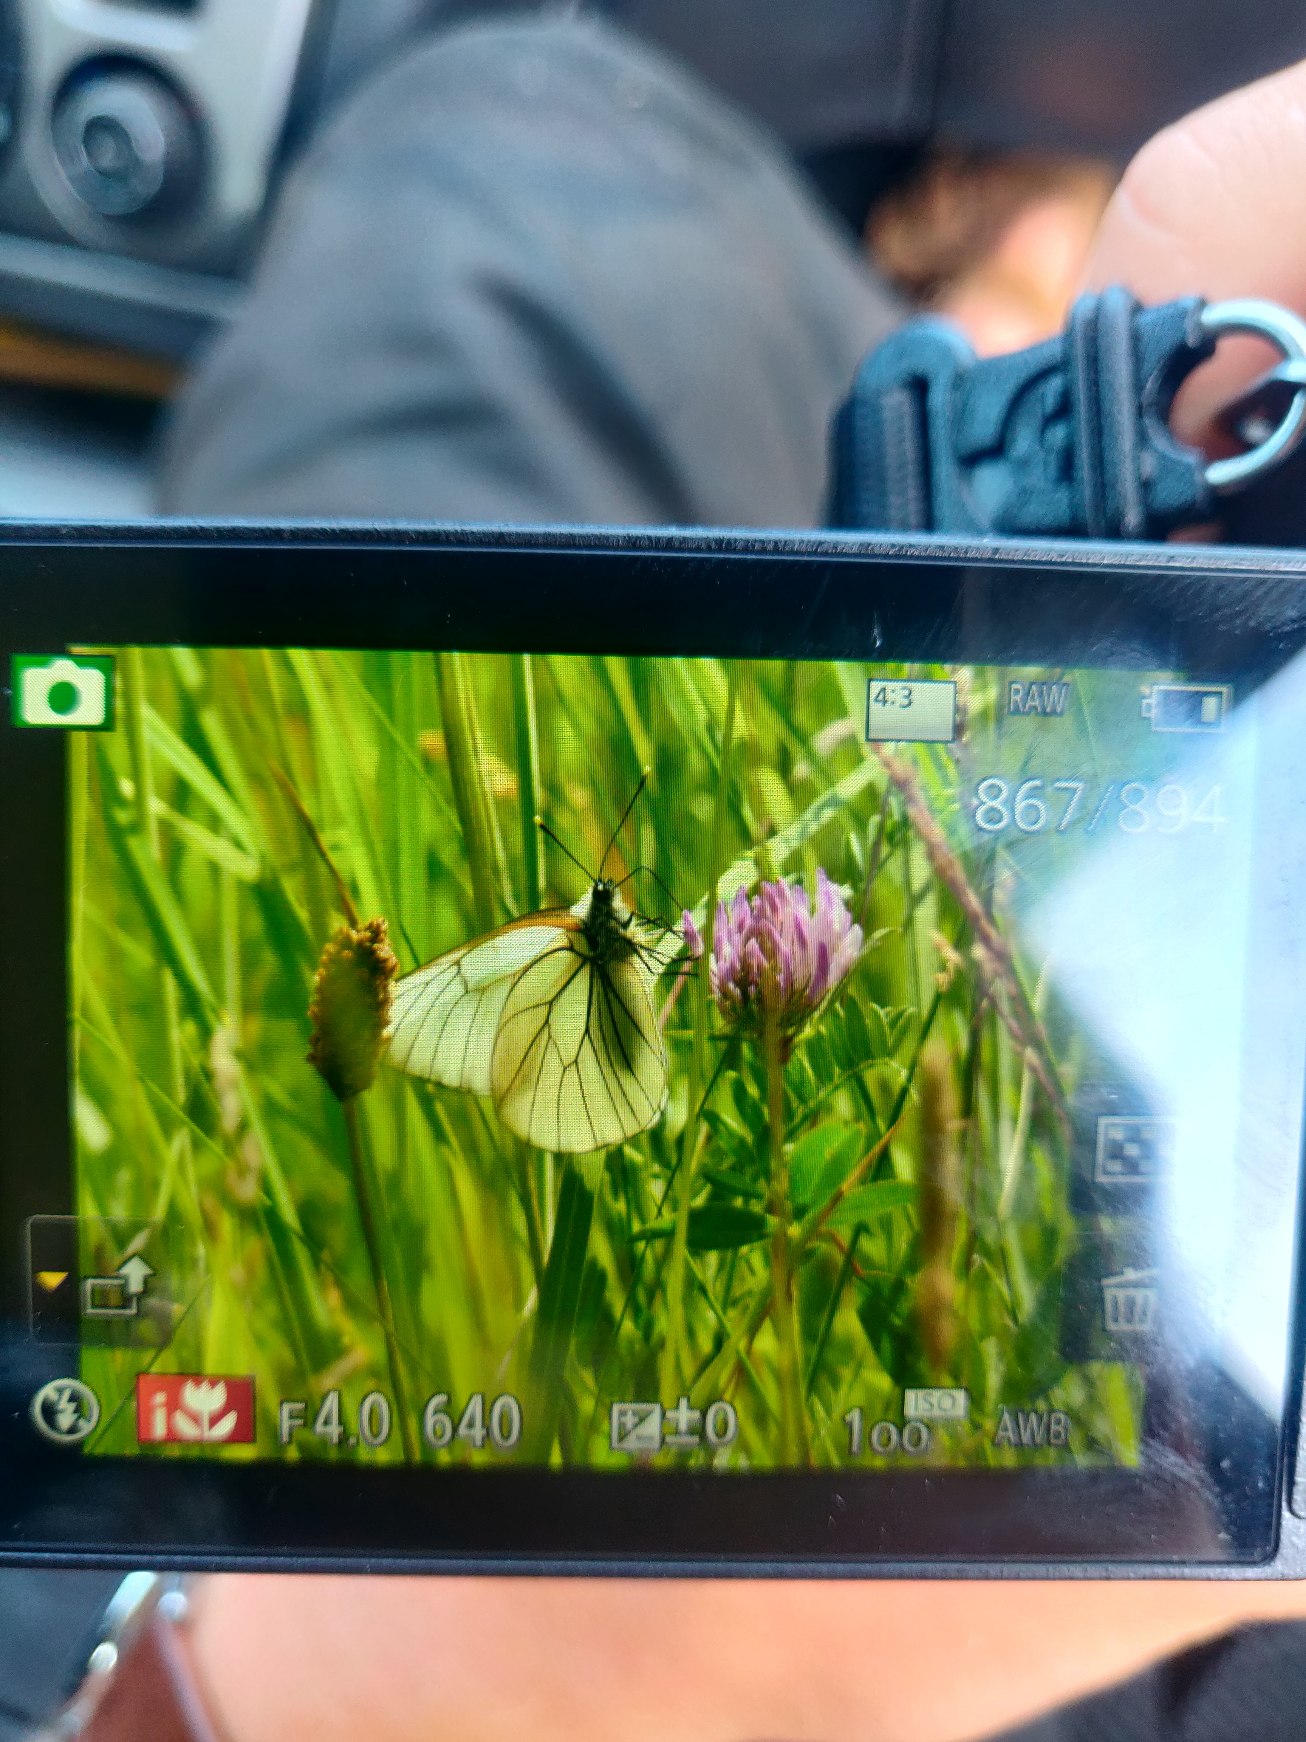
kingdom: Animalia
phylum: Arthropoda
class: Insecta
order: Lepidoptera
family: Pieridae
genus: Aporia
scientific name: Aporia crataegi
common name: Sortåret hvidvinge
